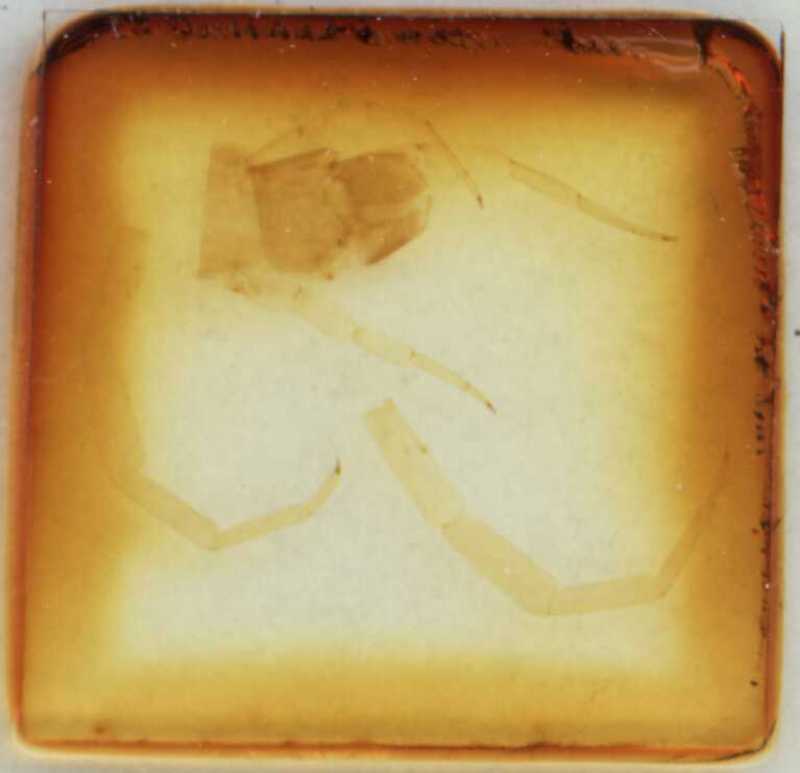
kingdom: Animalia
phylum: Arthropoda
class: Chilopoda
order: Scolopendromorpha
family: Scolopendridae
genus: Otostigmus
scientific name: Otostigmus foveolatus
